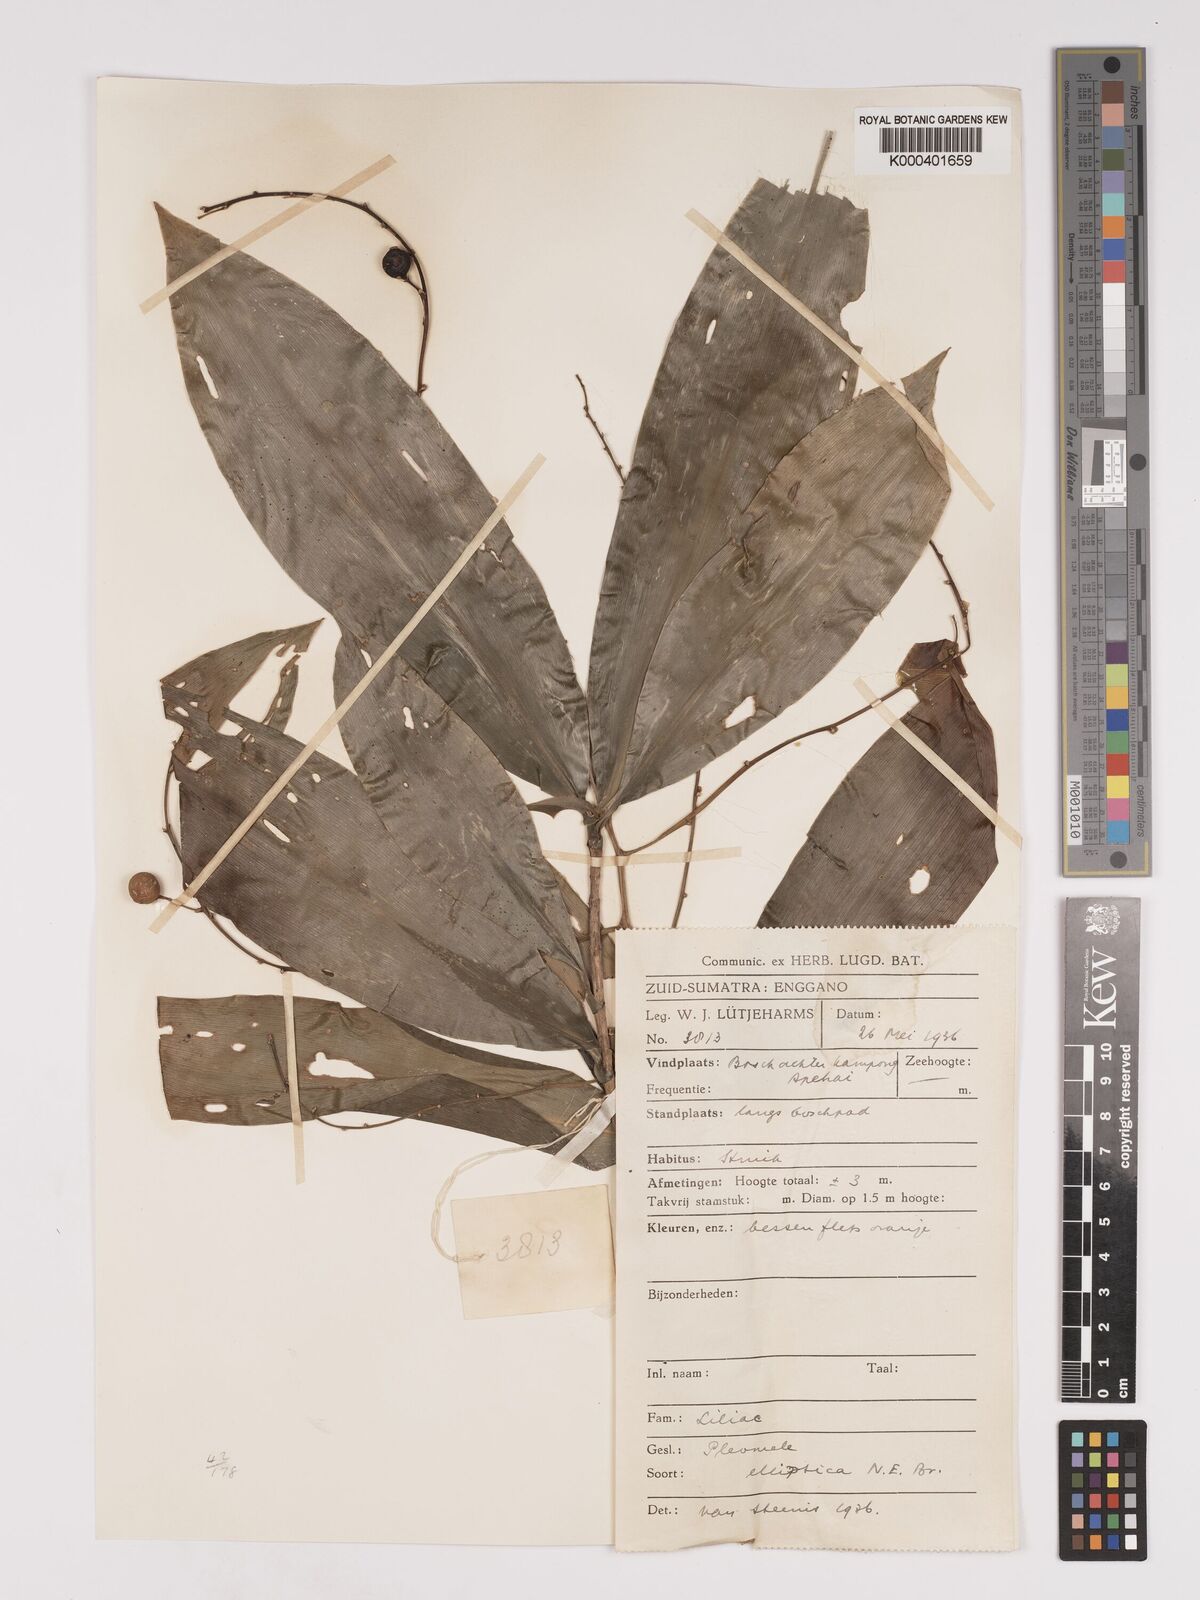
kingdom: Plantae
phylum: Tracheophyta
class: Liliopsida
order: Asparagales
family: Asparagaceae
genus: Dracaena
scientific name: Dracaena elliptica
